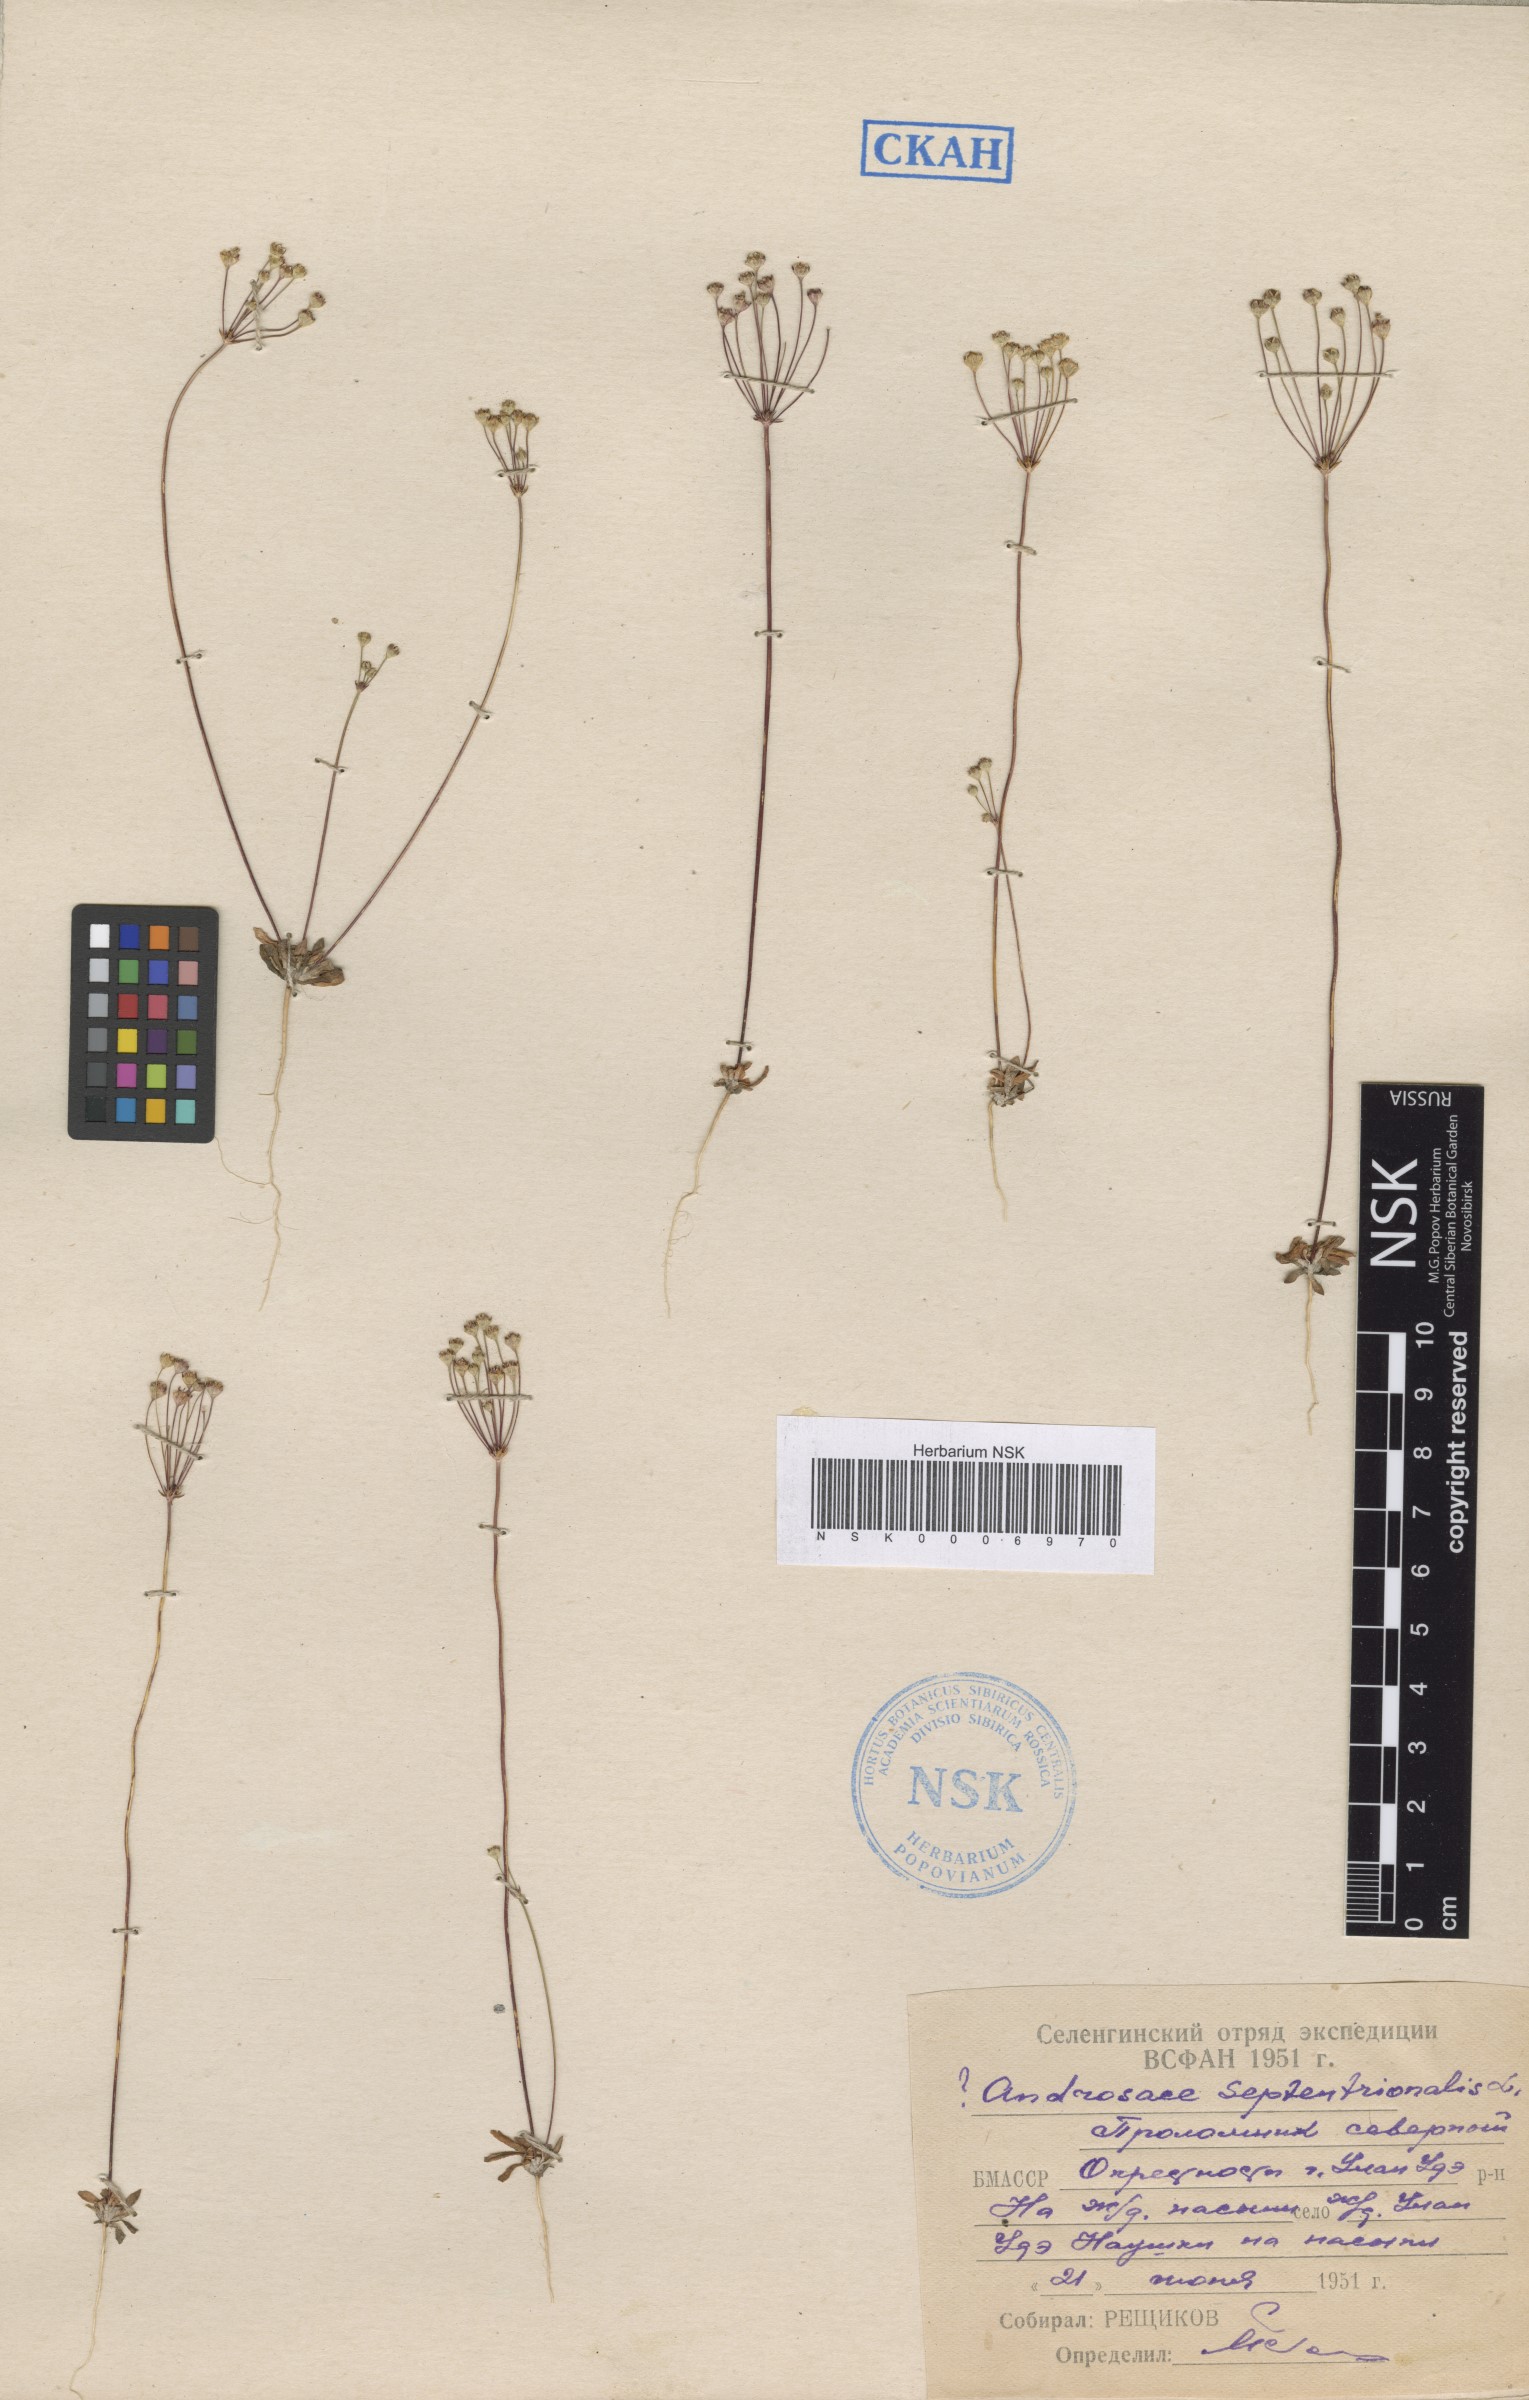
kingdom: Plantae
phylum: Tracheophyta
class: Magnoliopsida
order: Ericales
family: Primulaceae
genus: Androsace
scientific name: Androsace septentrionalis
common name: Hairy northern fairy-candelabra
